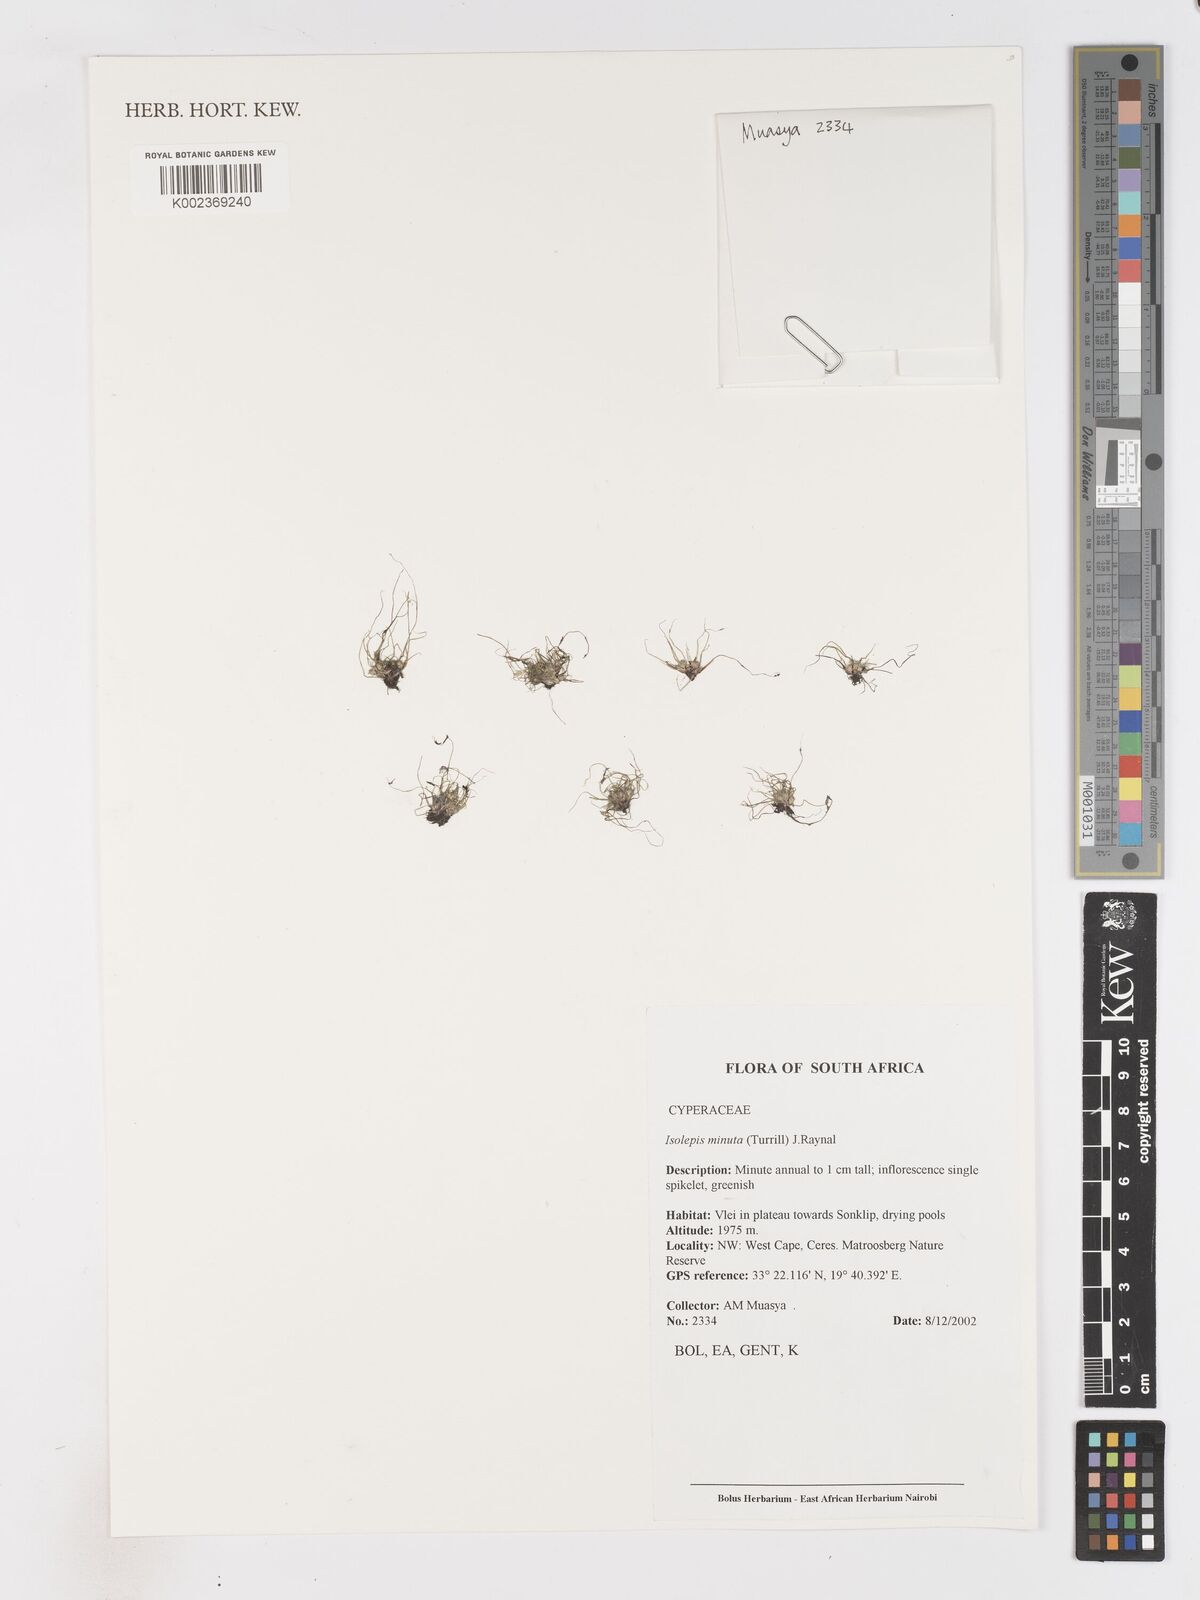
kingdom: Plantae
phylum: Tracheophyta
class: Liliopsida
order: Poales
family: Cyperaceae
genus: Ficinia
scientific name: Ficinia minuta
